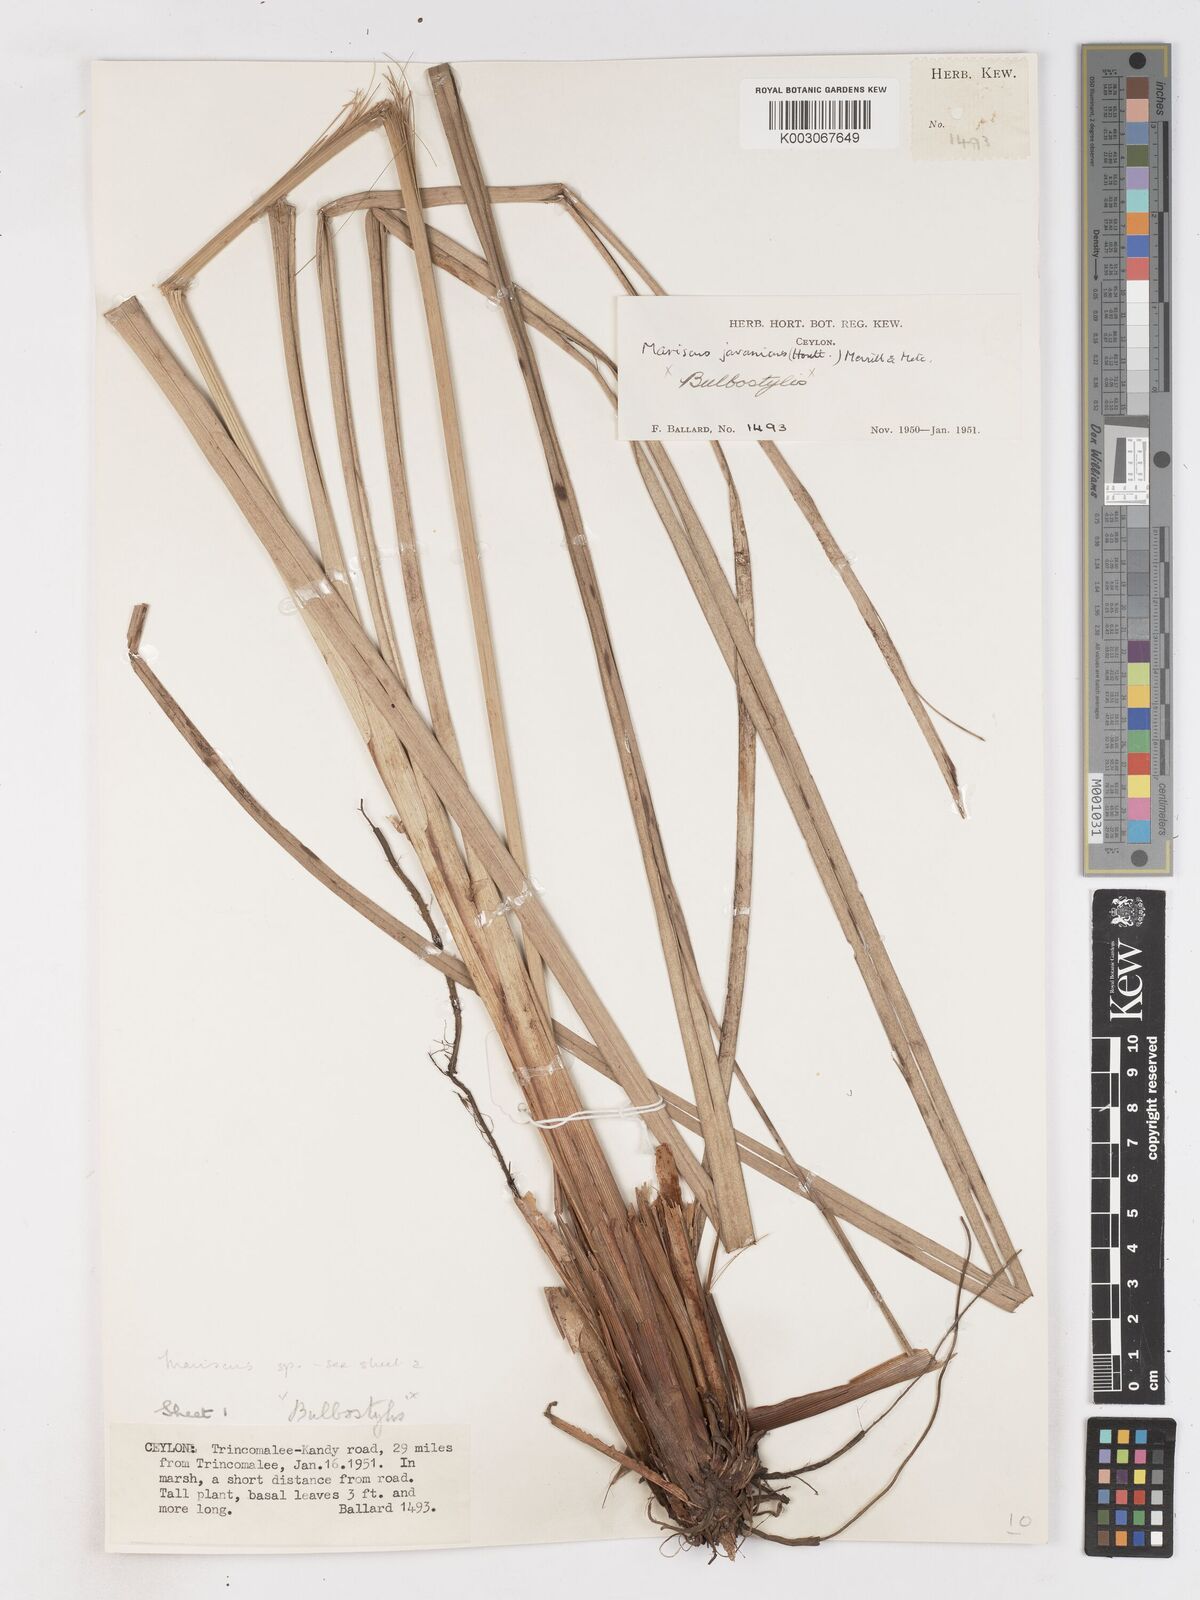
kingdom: Plantae
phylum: Tracheophyta
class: Liliopsida
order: Poales
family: Cyperaceae
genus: Cyperus
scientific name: Cyperus javanicus
